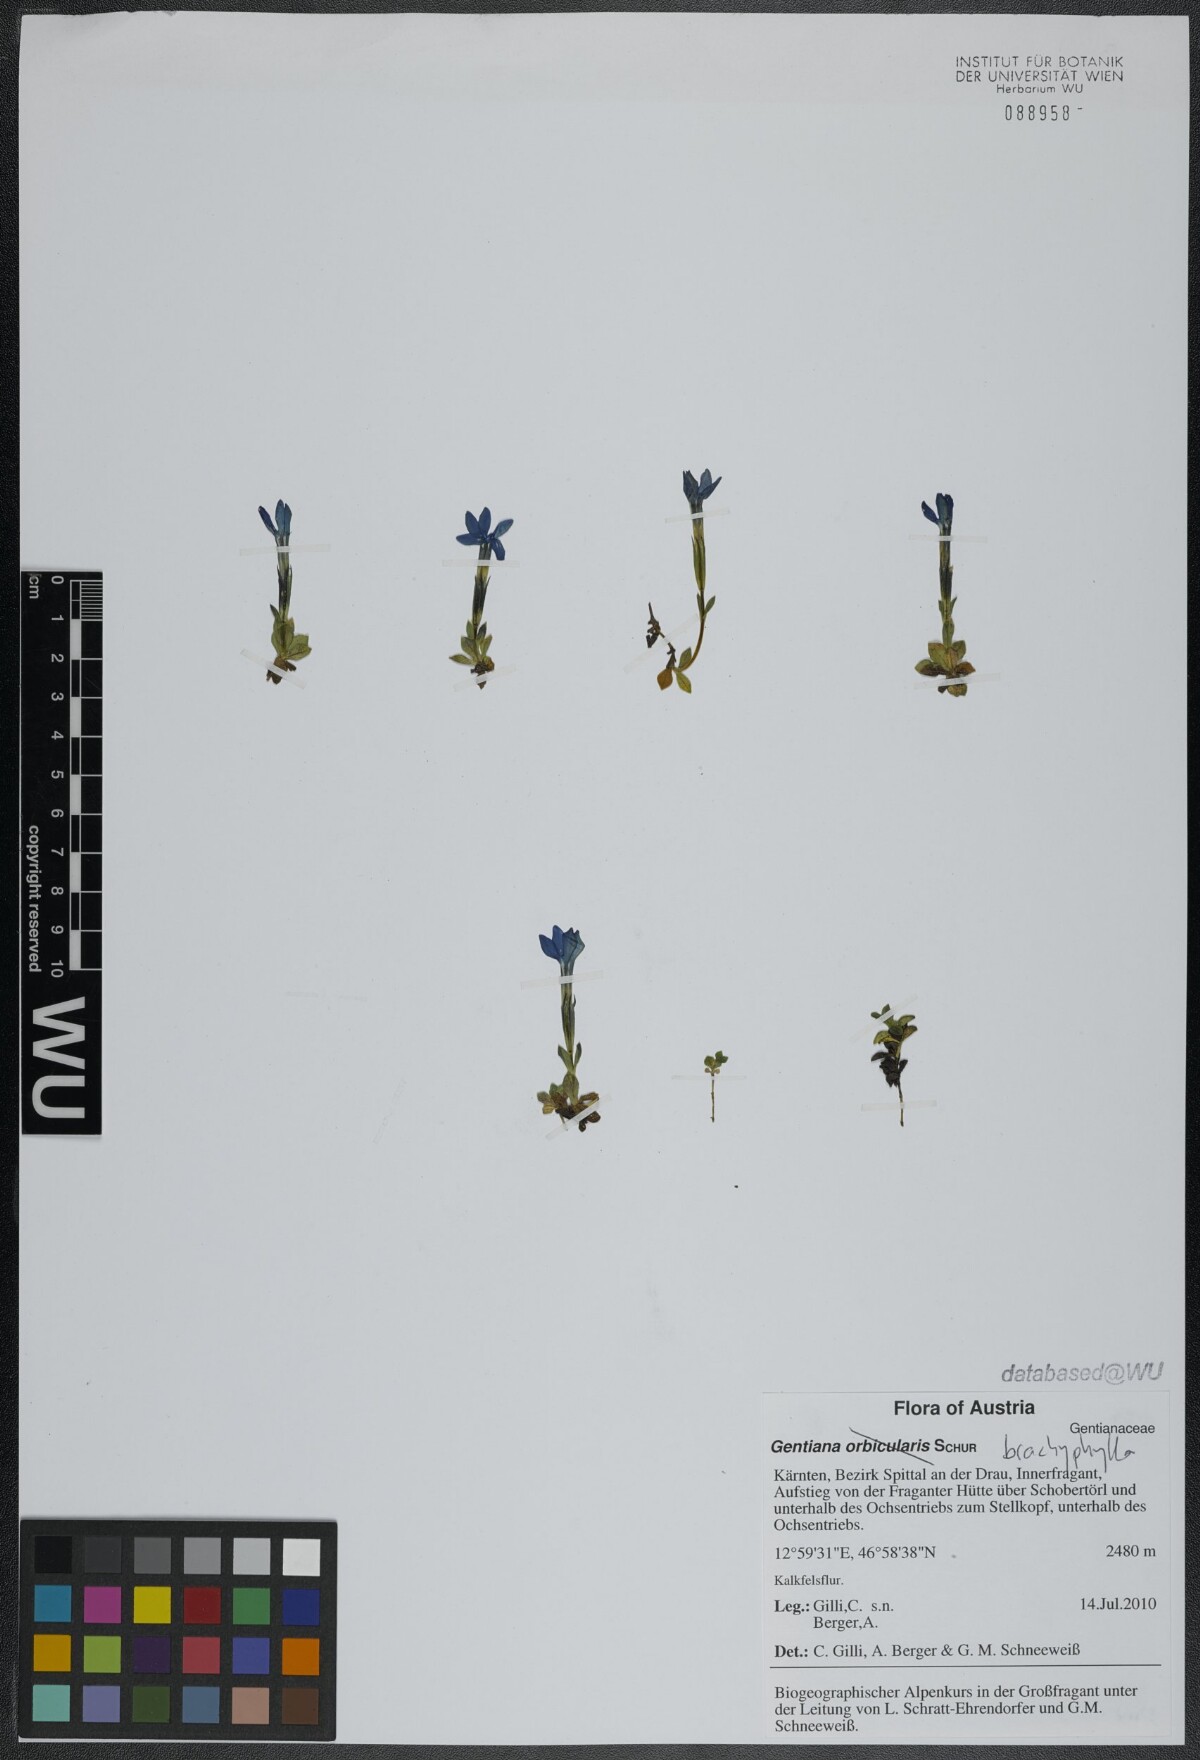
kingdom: Plantae
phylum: Tracheophyta
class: Magnoliopsida
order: Gentianales
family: Gentianaceae
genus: Gentiana
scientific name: Gentiana brachyphylla
